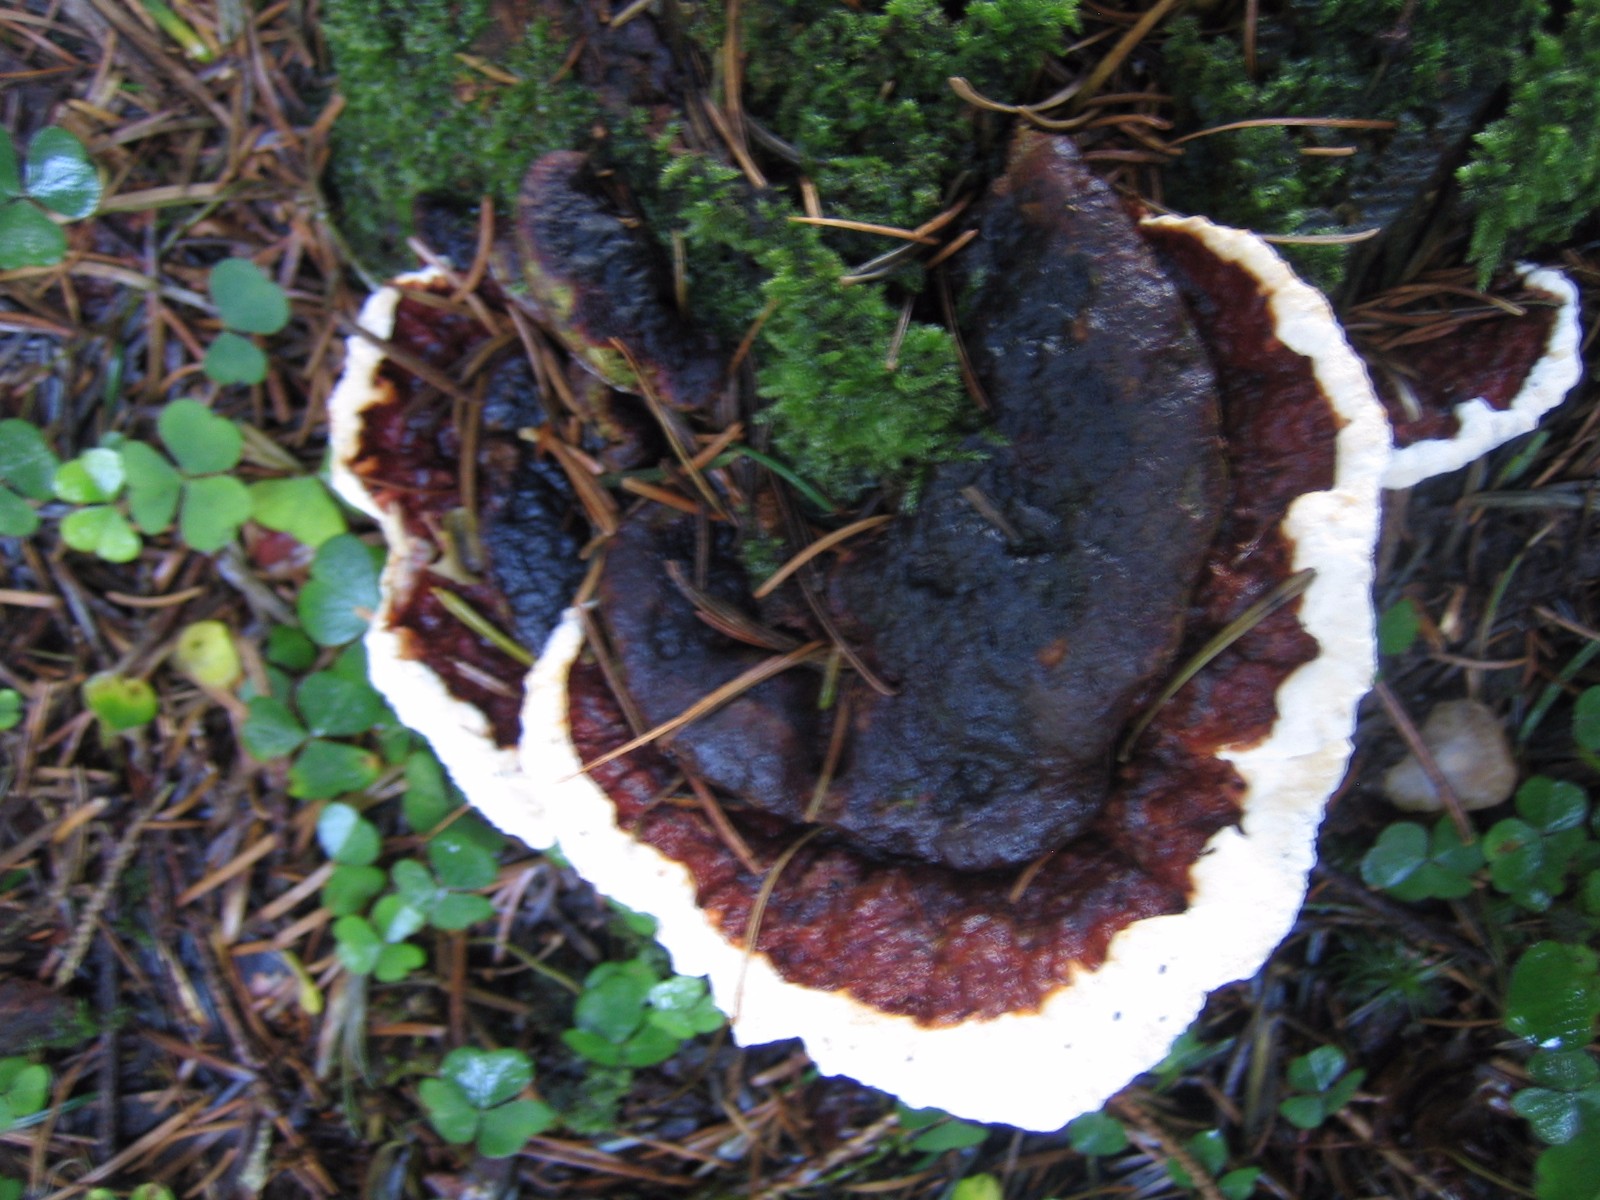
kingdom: Fungi
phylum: Basidiomycota
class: Agaricomycetes
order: Russulales
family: Bondarzewiaceae
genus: Heterobasidion
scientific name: Heterobasidion annosum
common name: almindelig rodfordærver
